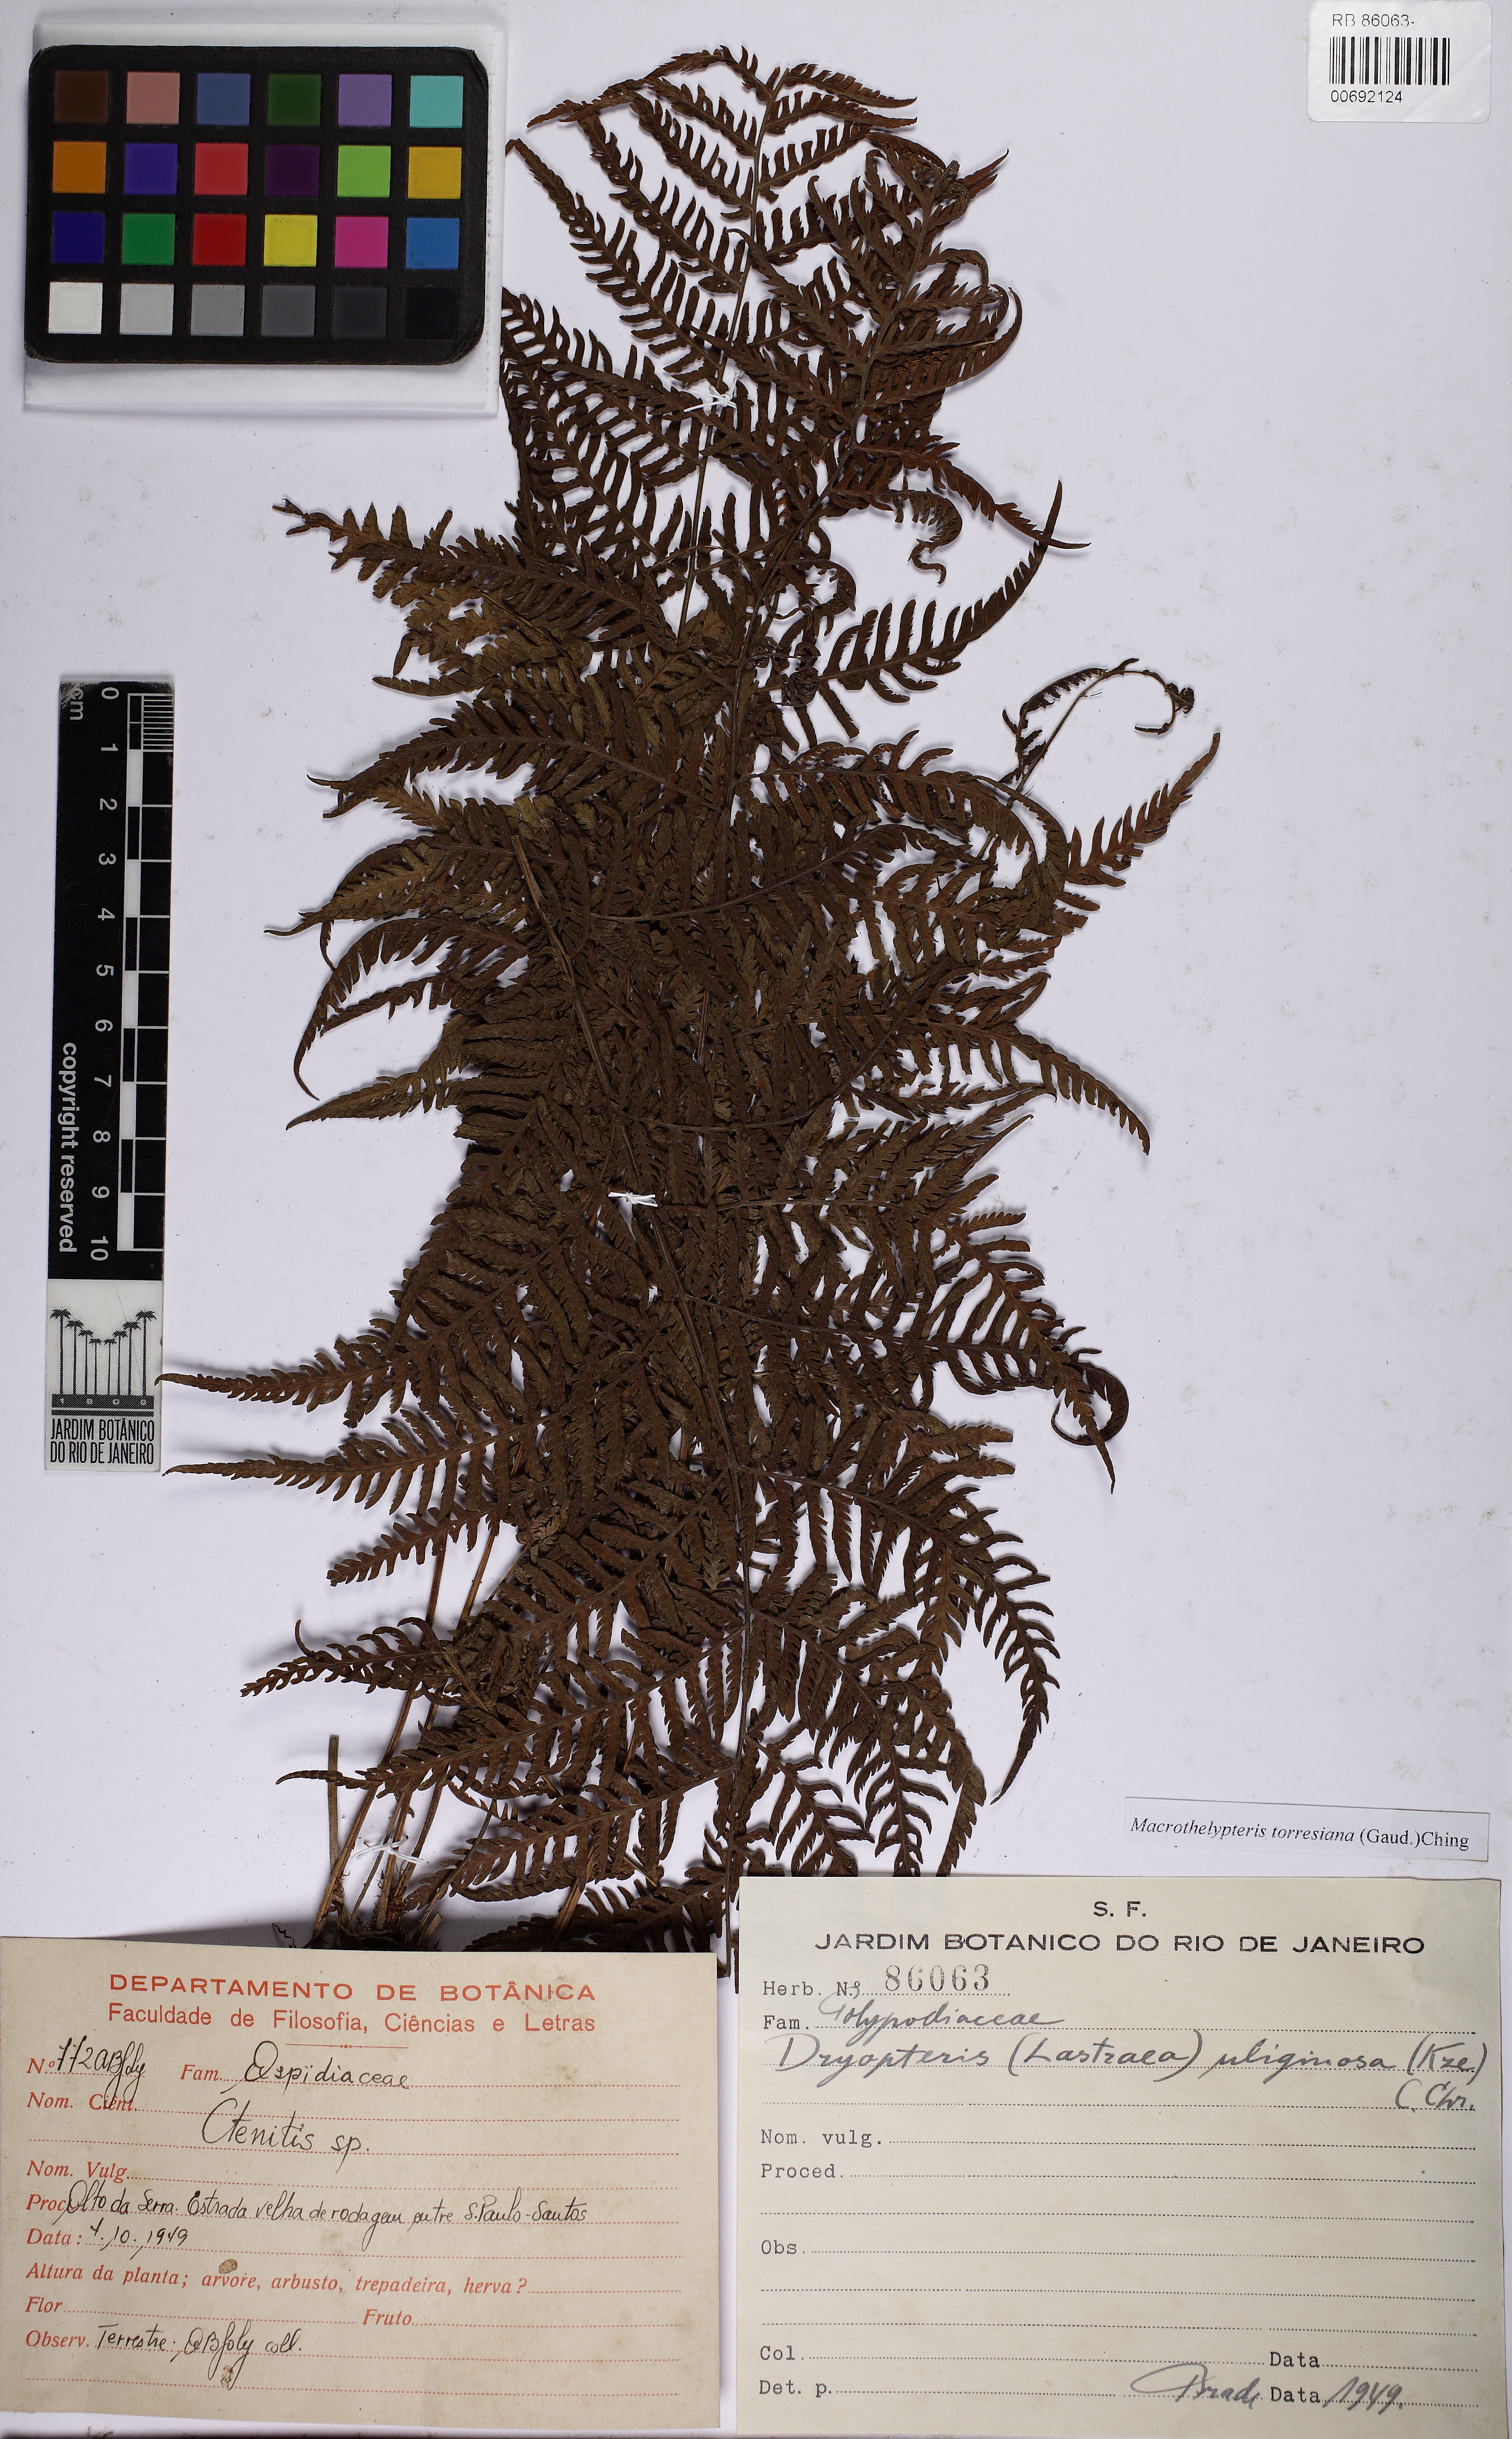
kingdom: Plantae
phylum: Tracheophyta
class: Polypodiopsida
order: Polypodiales
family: Thelypteridaceae
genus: Macrothelypteris
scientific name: Macrothelypteris torresiana
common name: Swordfern
